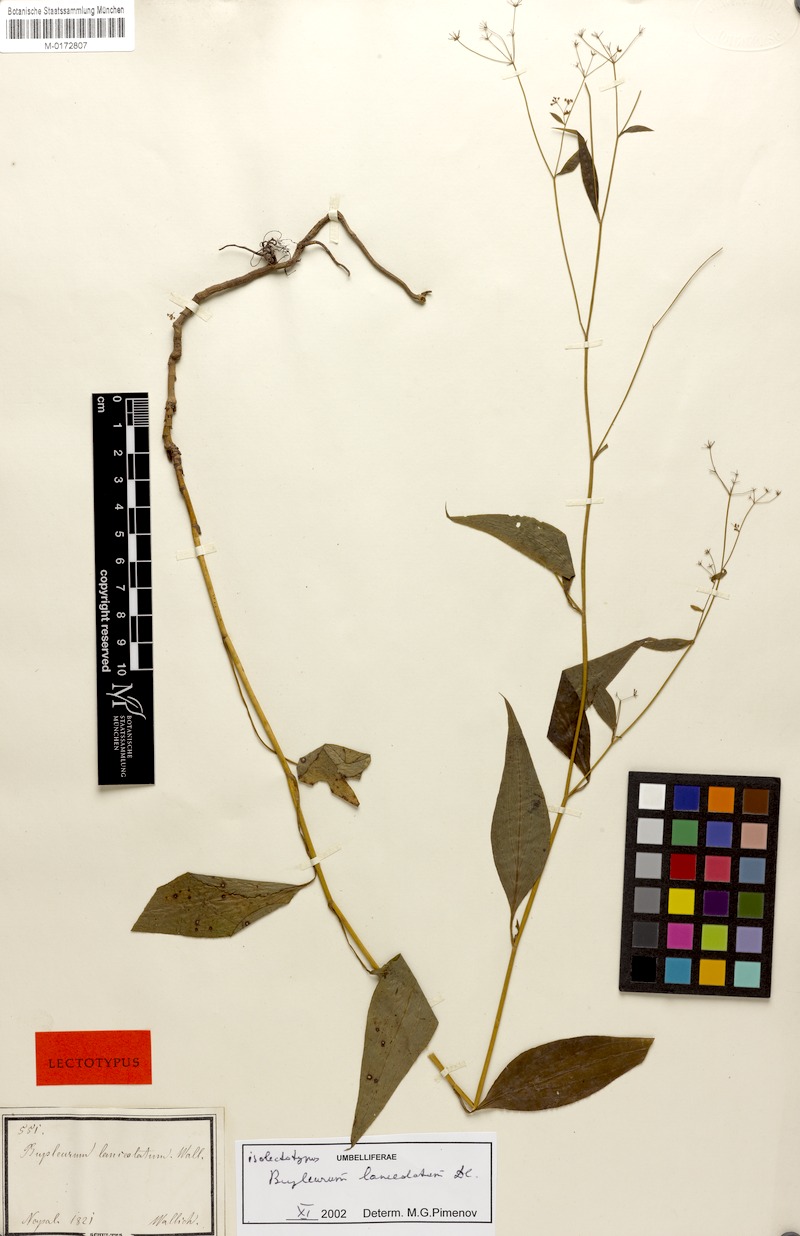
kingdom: Plantae
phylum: Tracheophyta
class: Magnoliopsida
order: Apiales
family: Apiaceae
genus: Bupleurum
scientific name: Bupleurum lanceolatum
